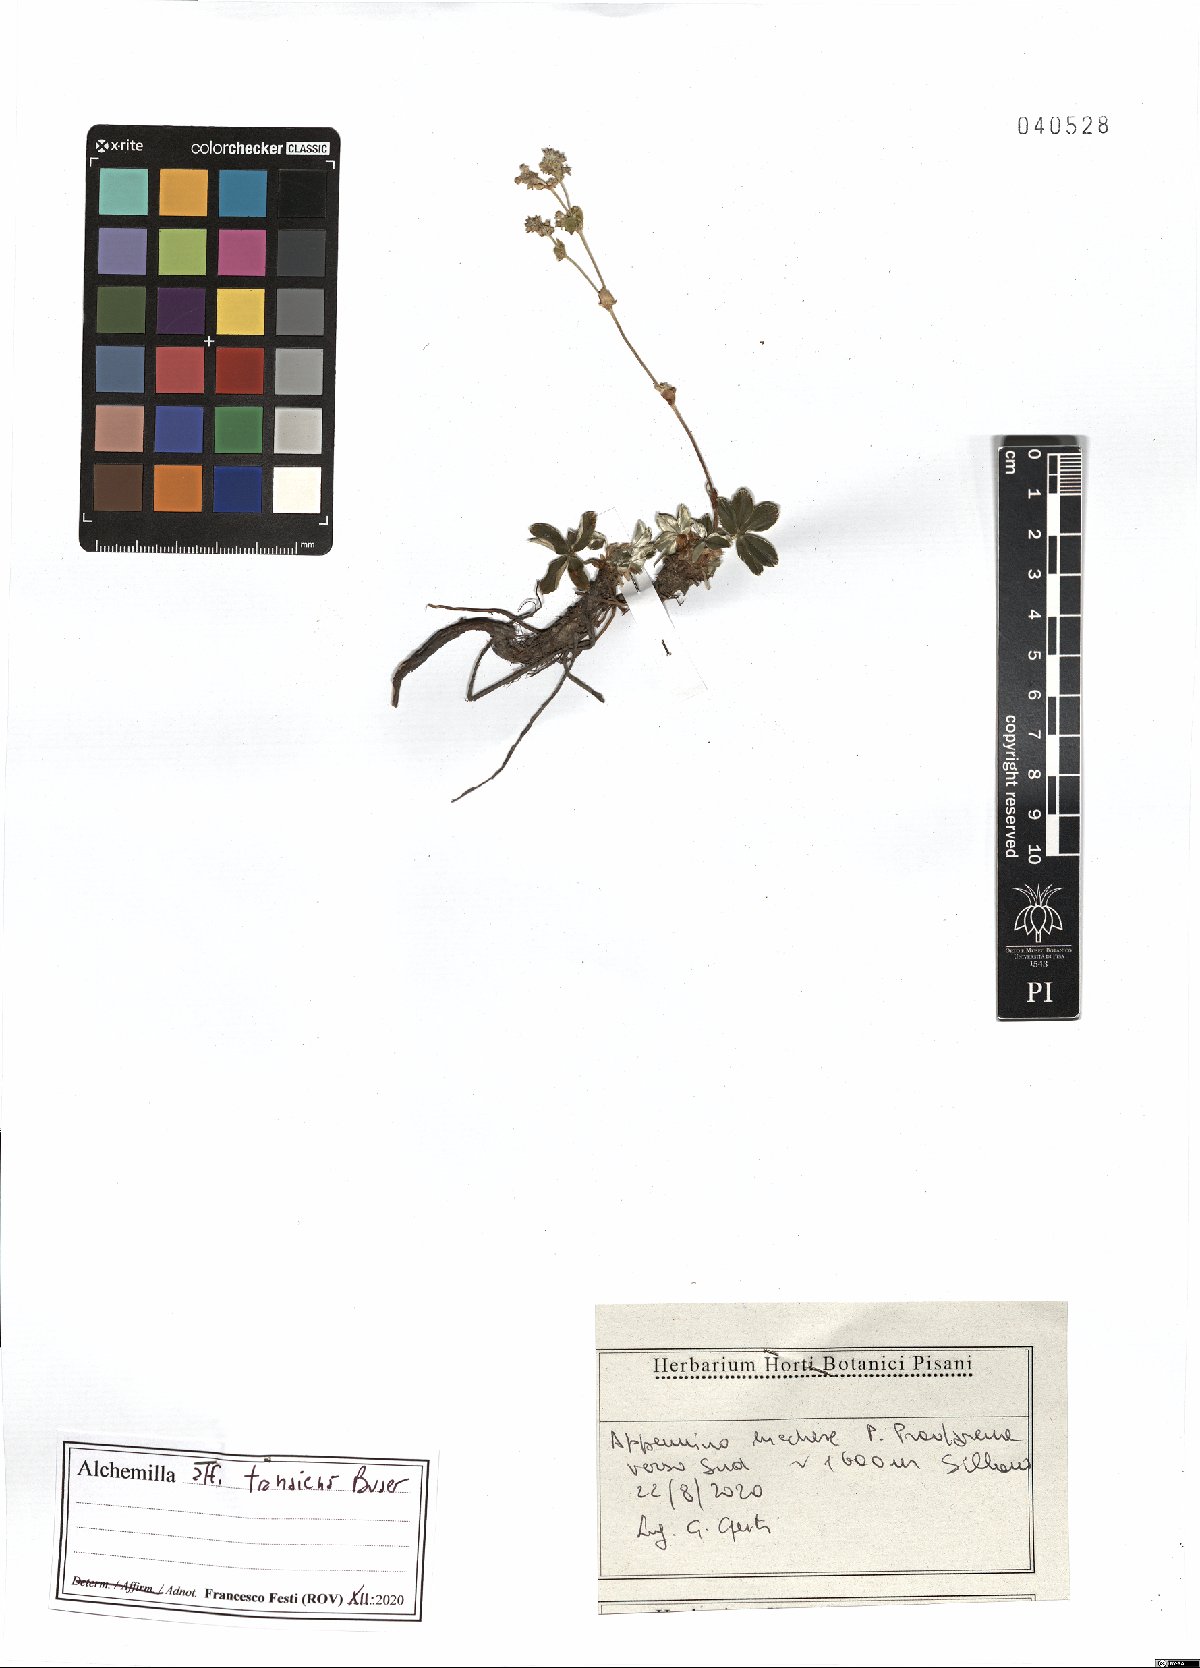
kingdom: Plantae
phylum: Tracheophyta
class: Magnoliopsida
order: Rosales
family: Rosaceae
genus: Alchemilla
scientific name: Alchemilla saxatilis
